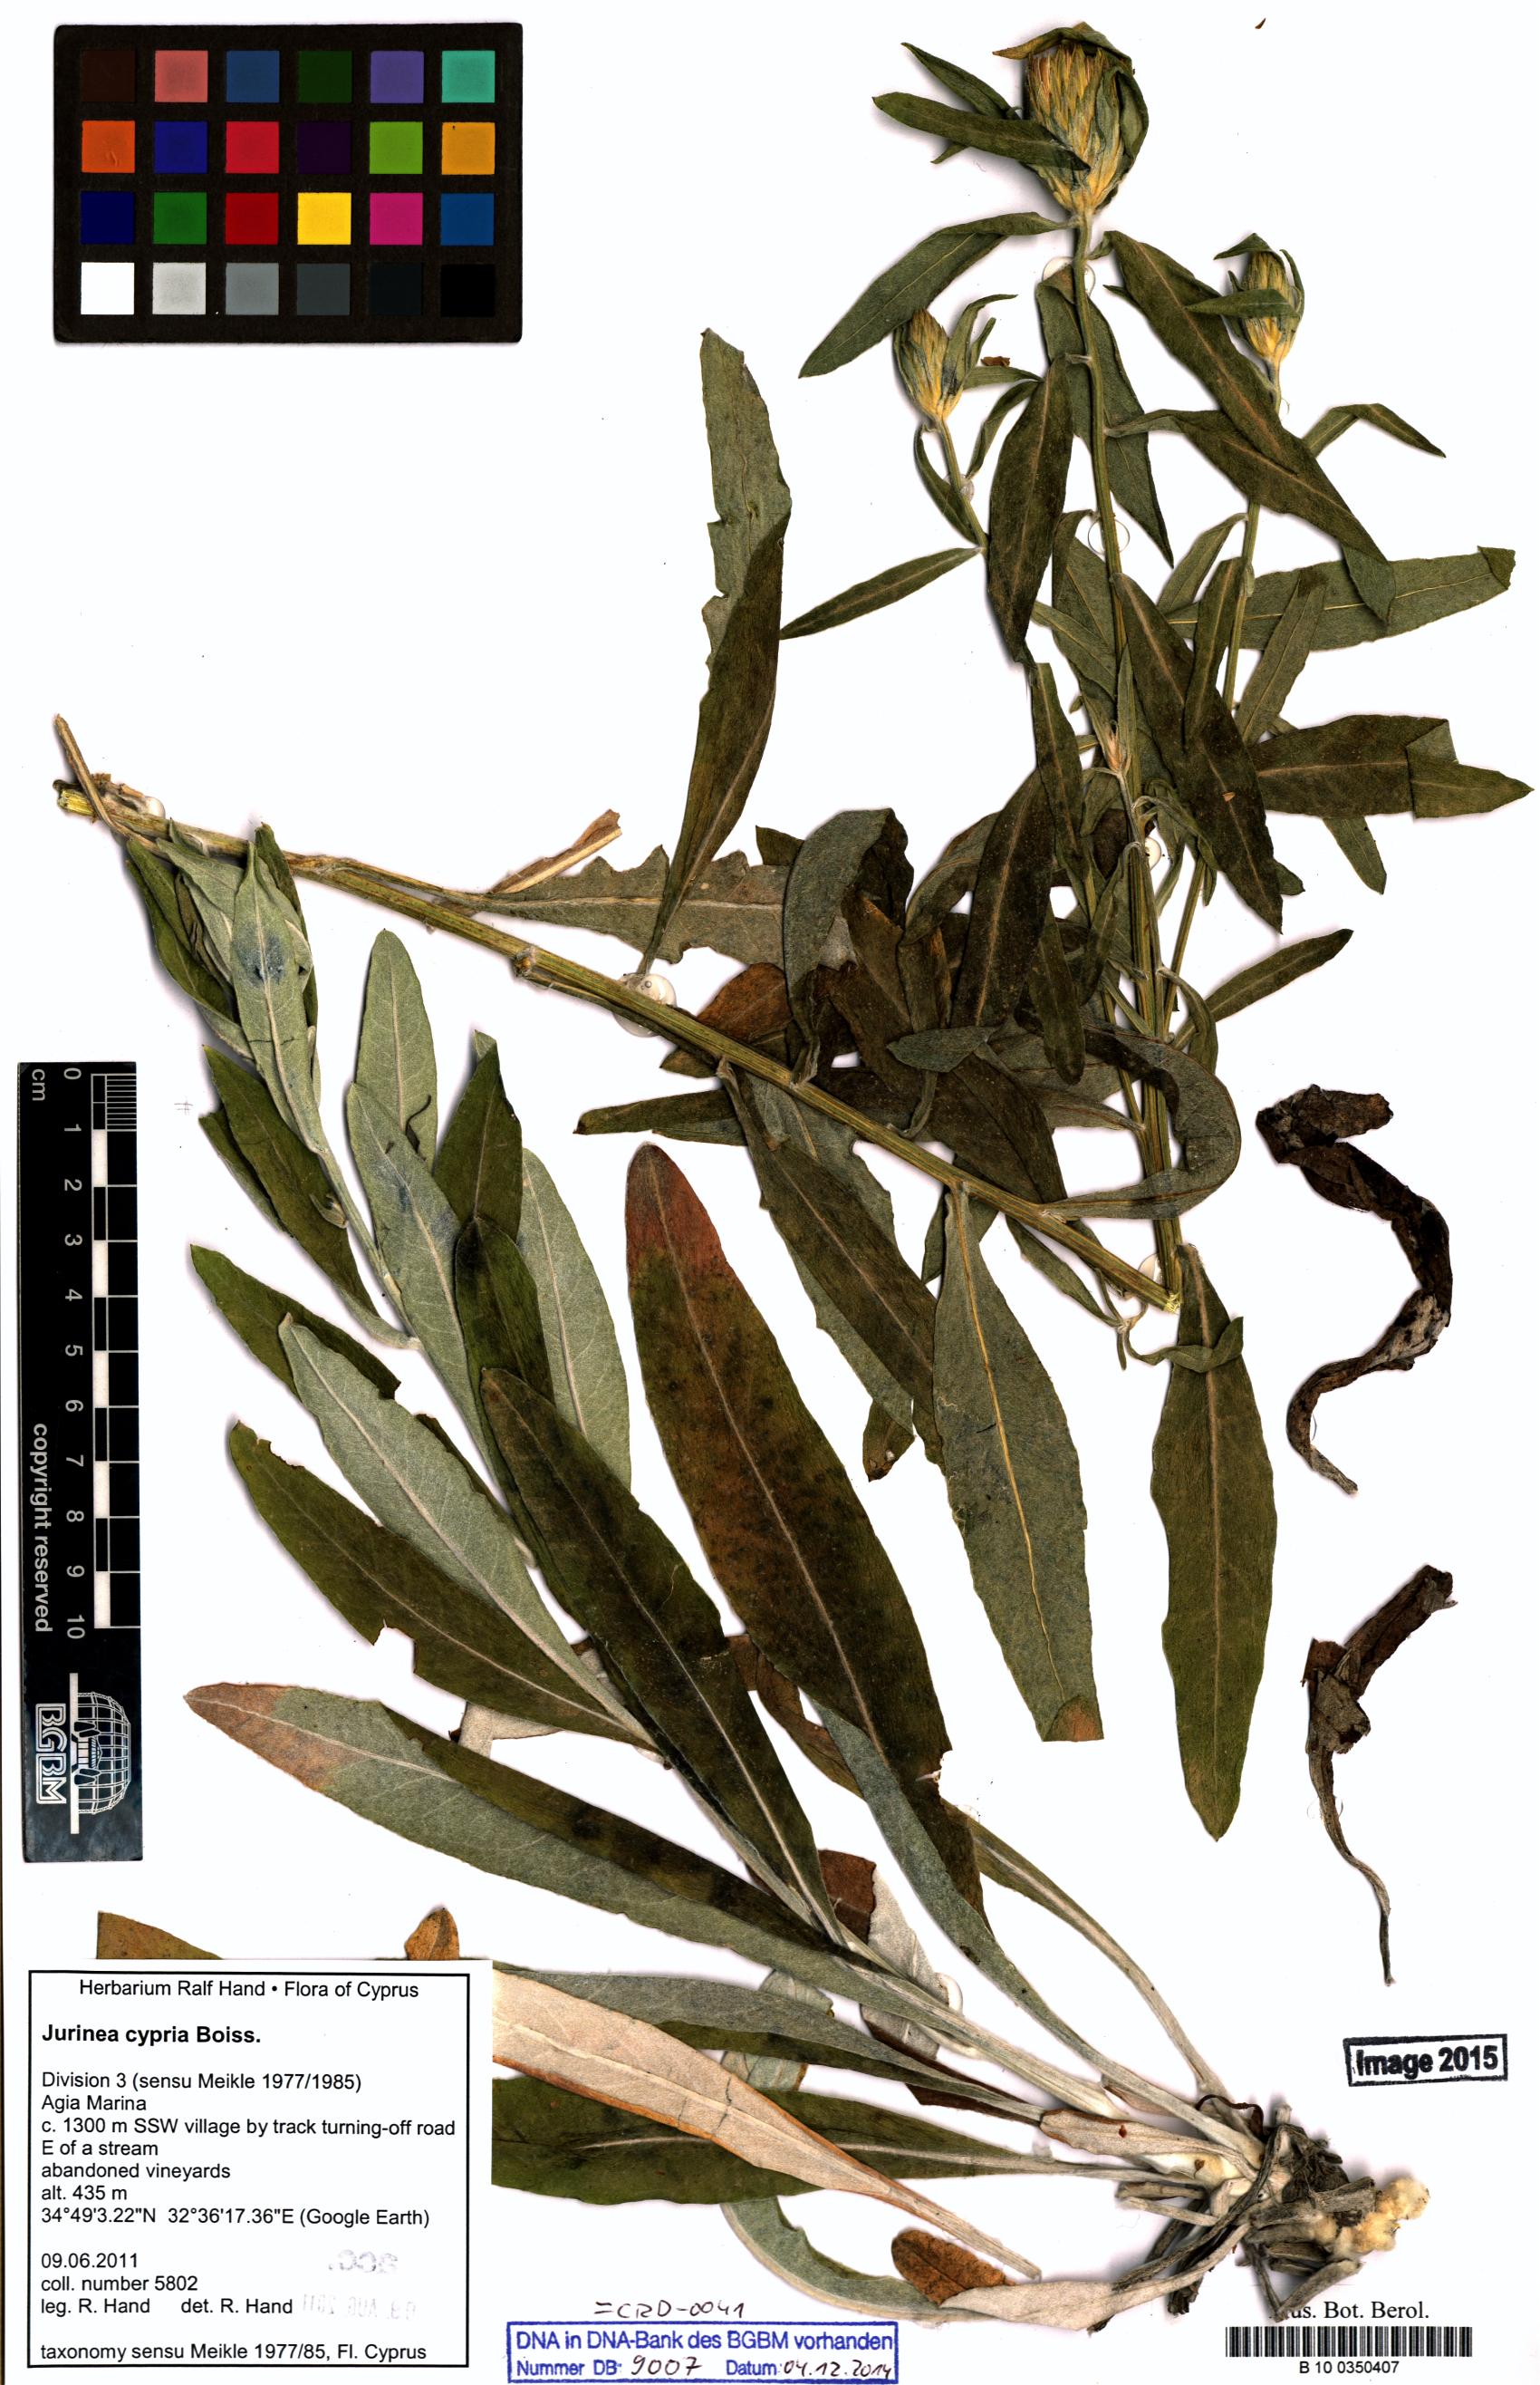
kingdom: Plantae
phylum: Tracheophyta
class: Magnoliopsida
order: Asterales
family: Asteraceae
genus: Jurinea
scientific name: Jurinea cypria
